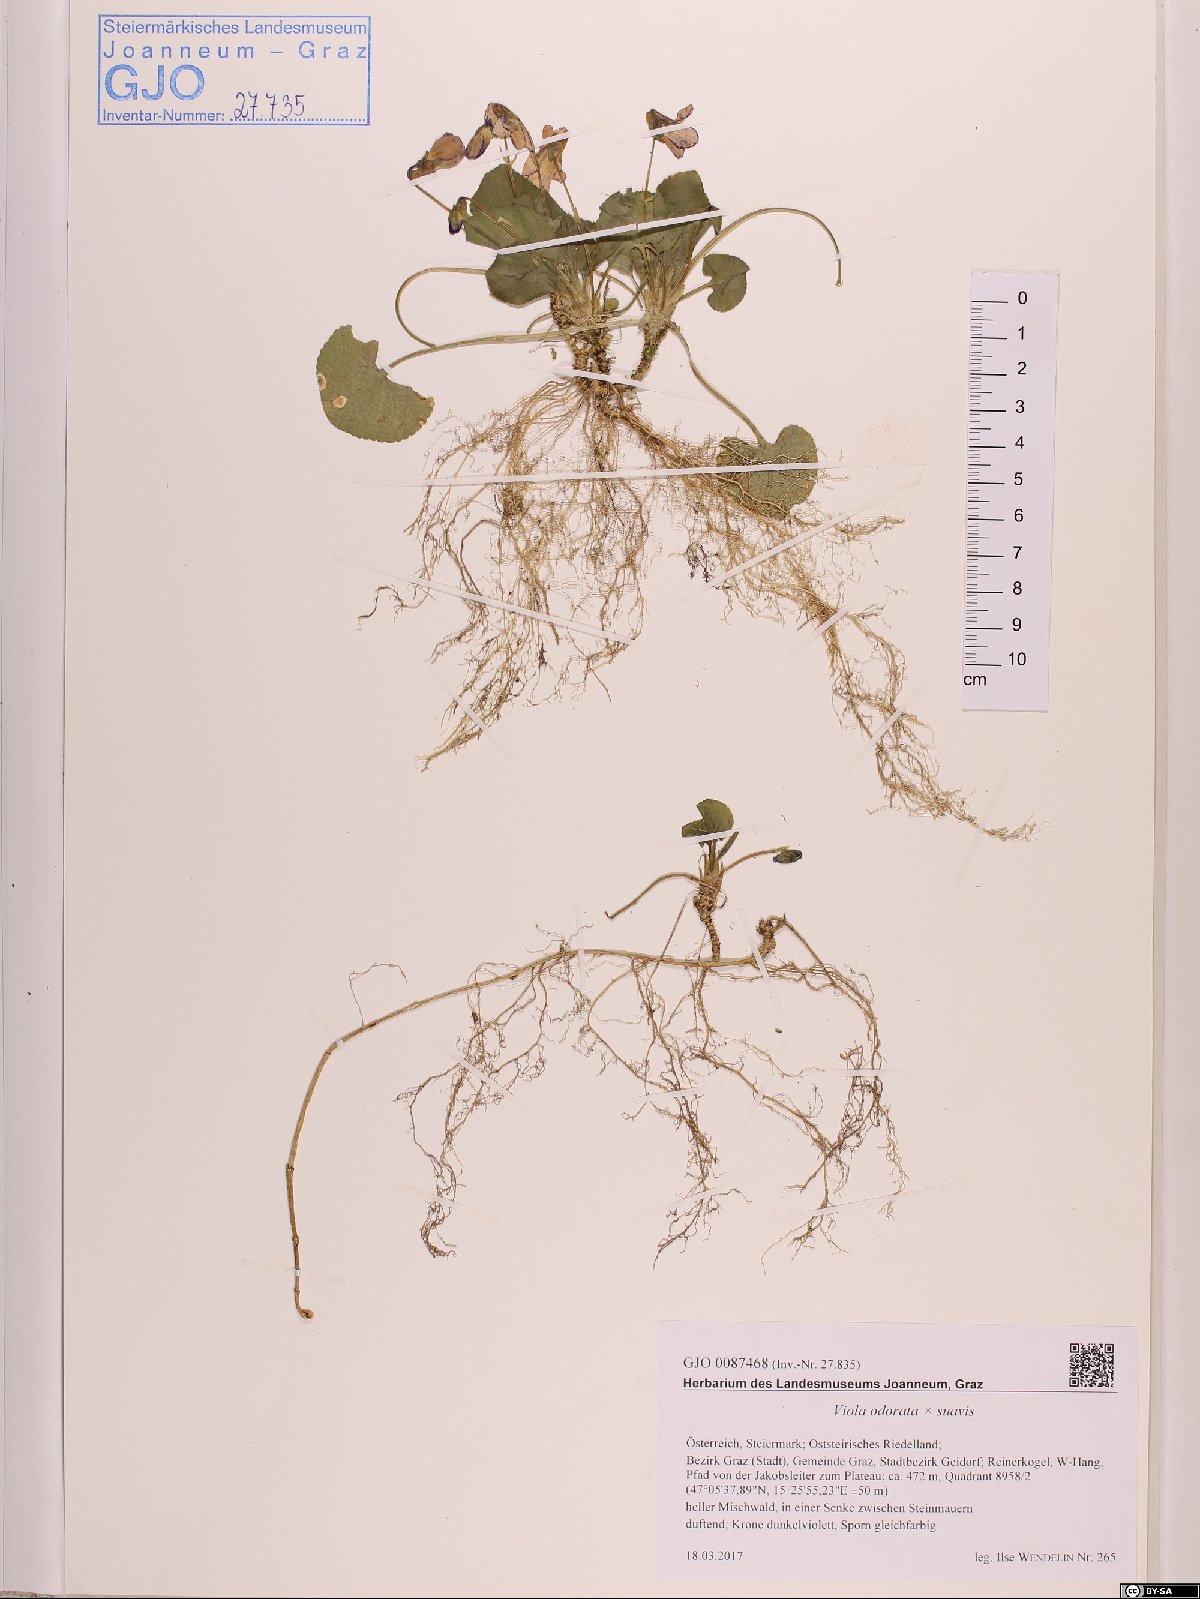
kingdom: Plantae
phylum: Tracheophyta
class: Magnoliopsida
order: Malpighiales
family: Violaceae
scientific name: Violaceae
